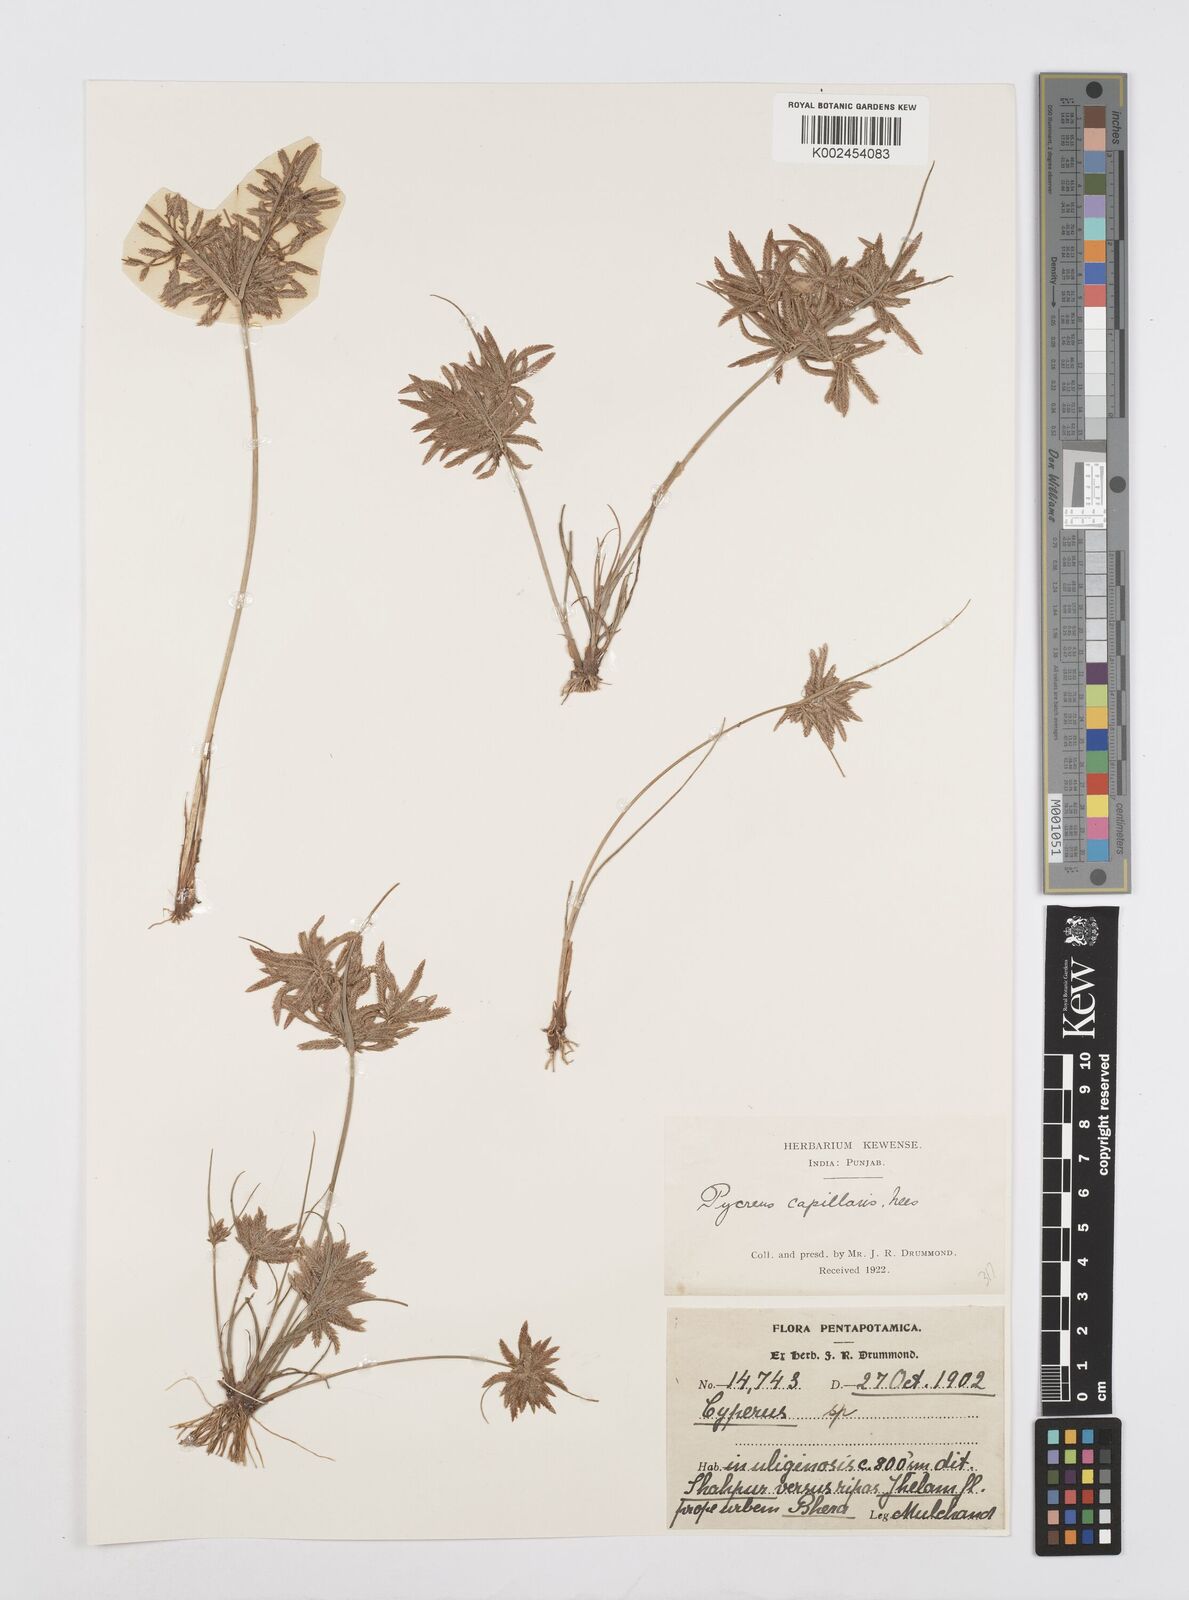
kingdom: Plantae
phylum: Tracheophyta
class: Liliopsida
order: Poales
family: Cyperaceae
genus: Cyperus
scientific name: Cyperus flavidus
